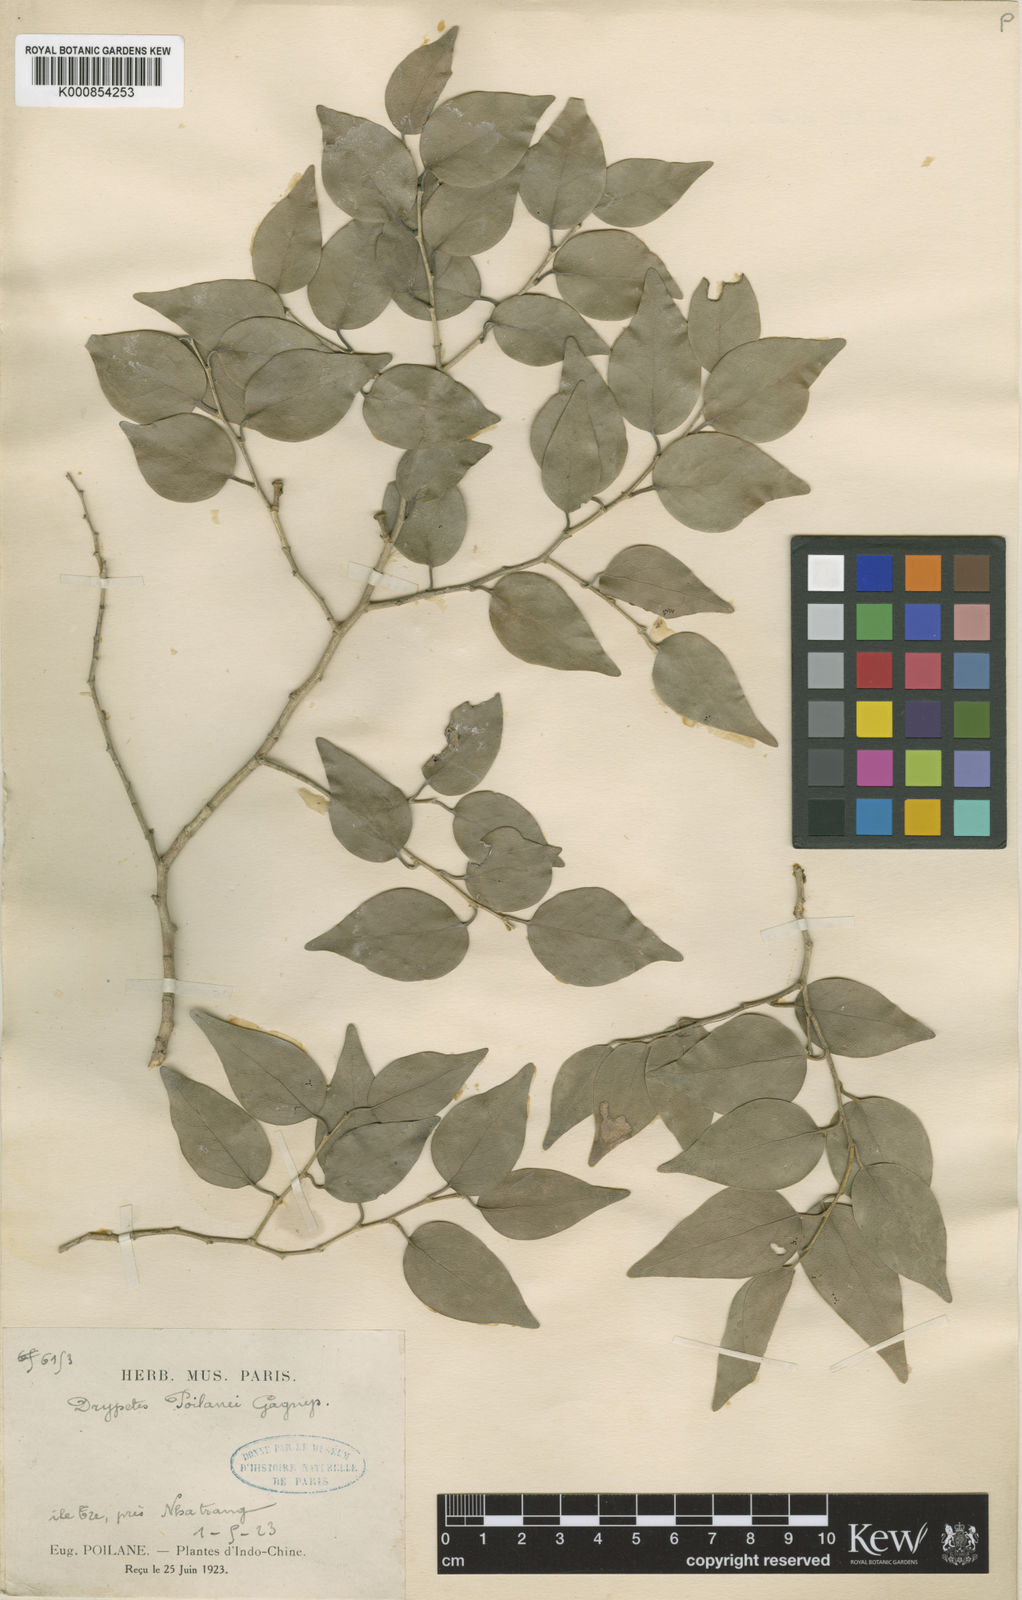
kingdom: Plantae
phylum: Tracheophyta
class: Magnoliopsida
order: Malpighiales
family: Putranjivaceae
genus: Drypetes
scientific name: Drypetes poilanei
